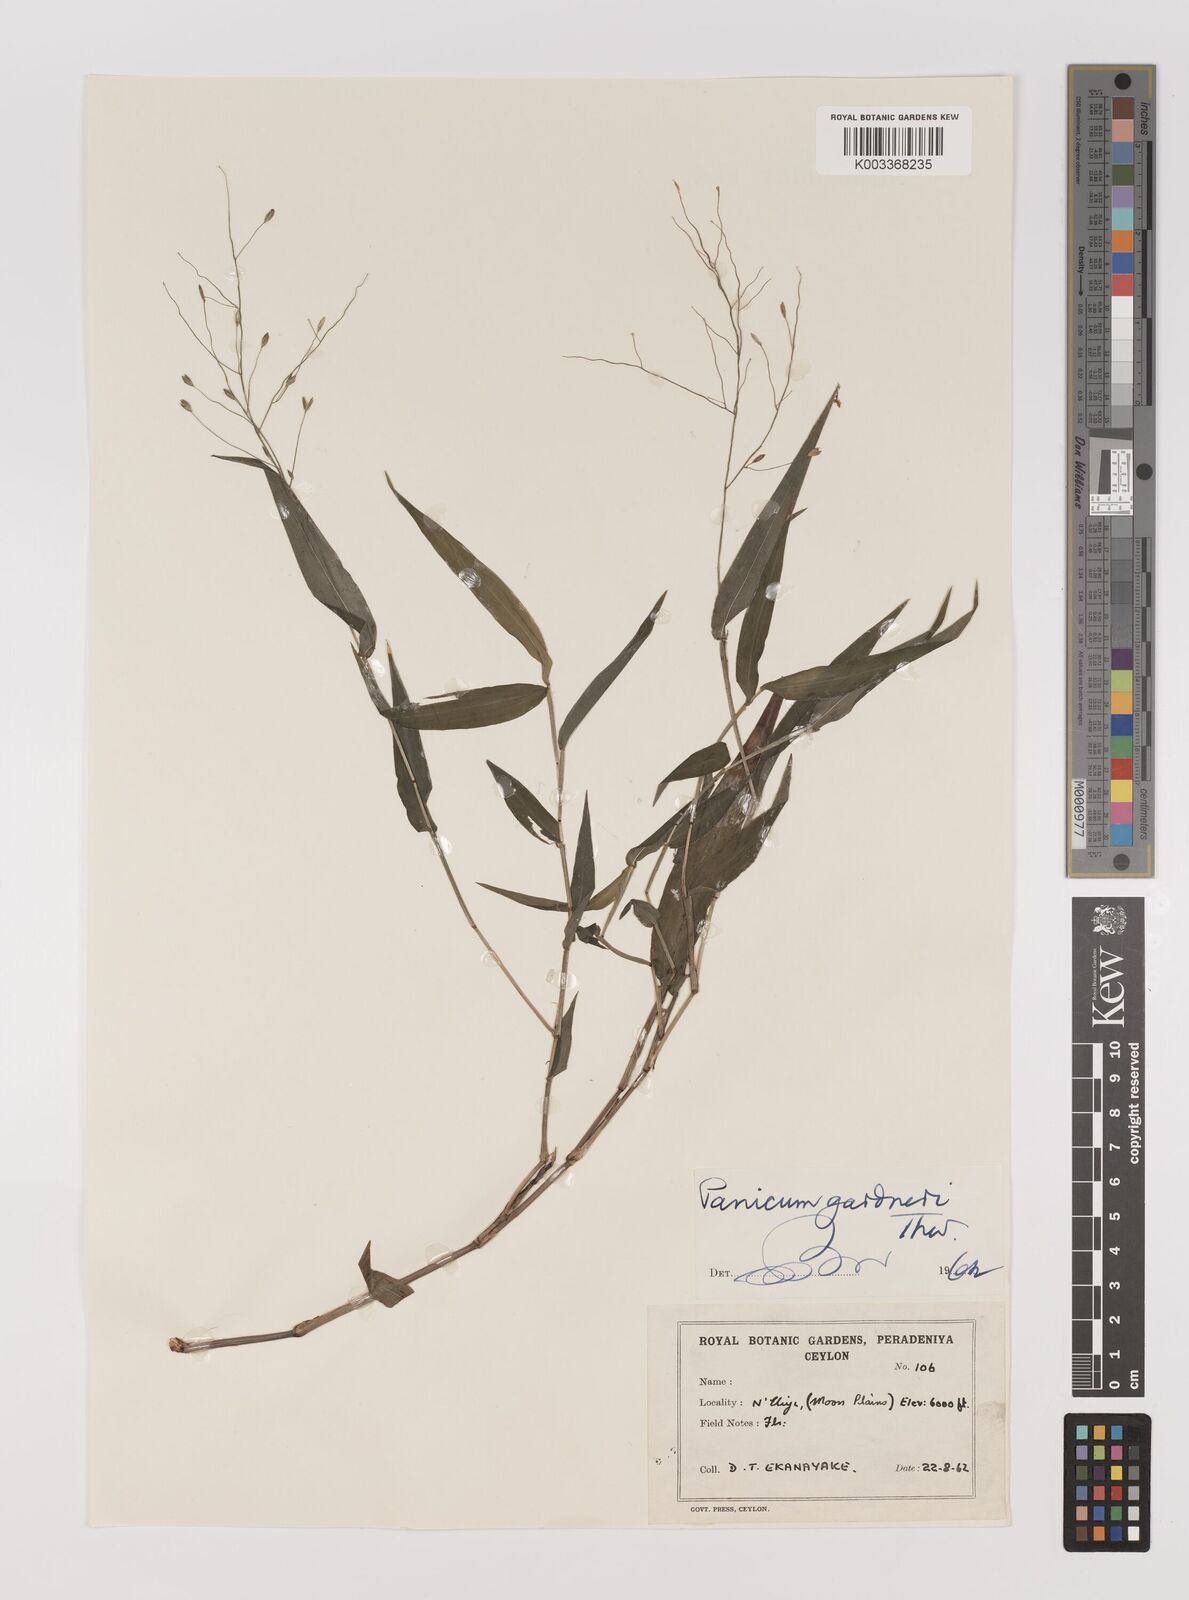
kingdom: Plantae
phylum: Tracheophyta
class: Liliopsida
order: Poales
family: Poaceae
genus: Panicum
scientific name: Panicum gardneri
